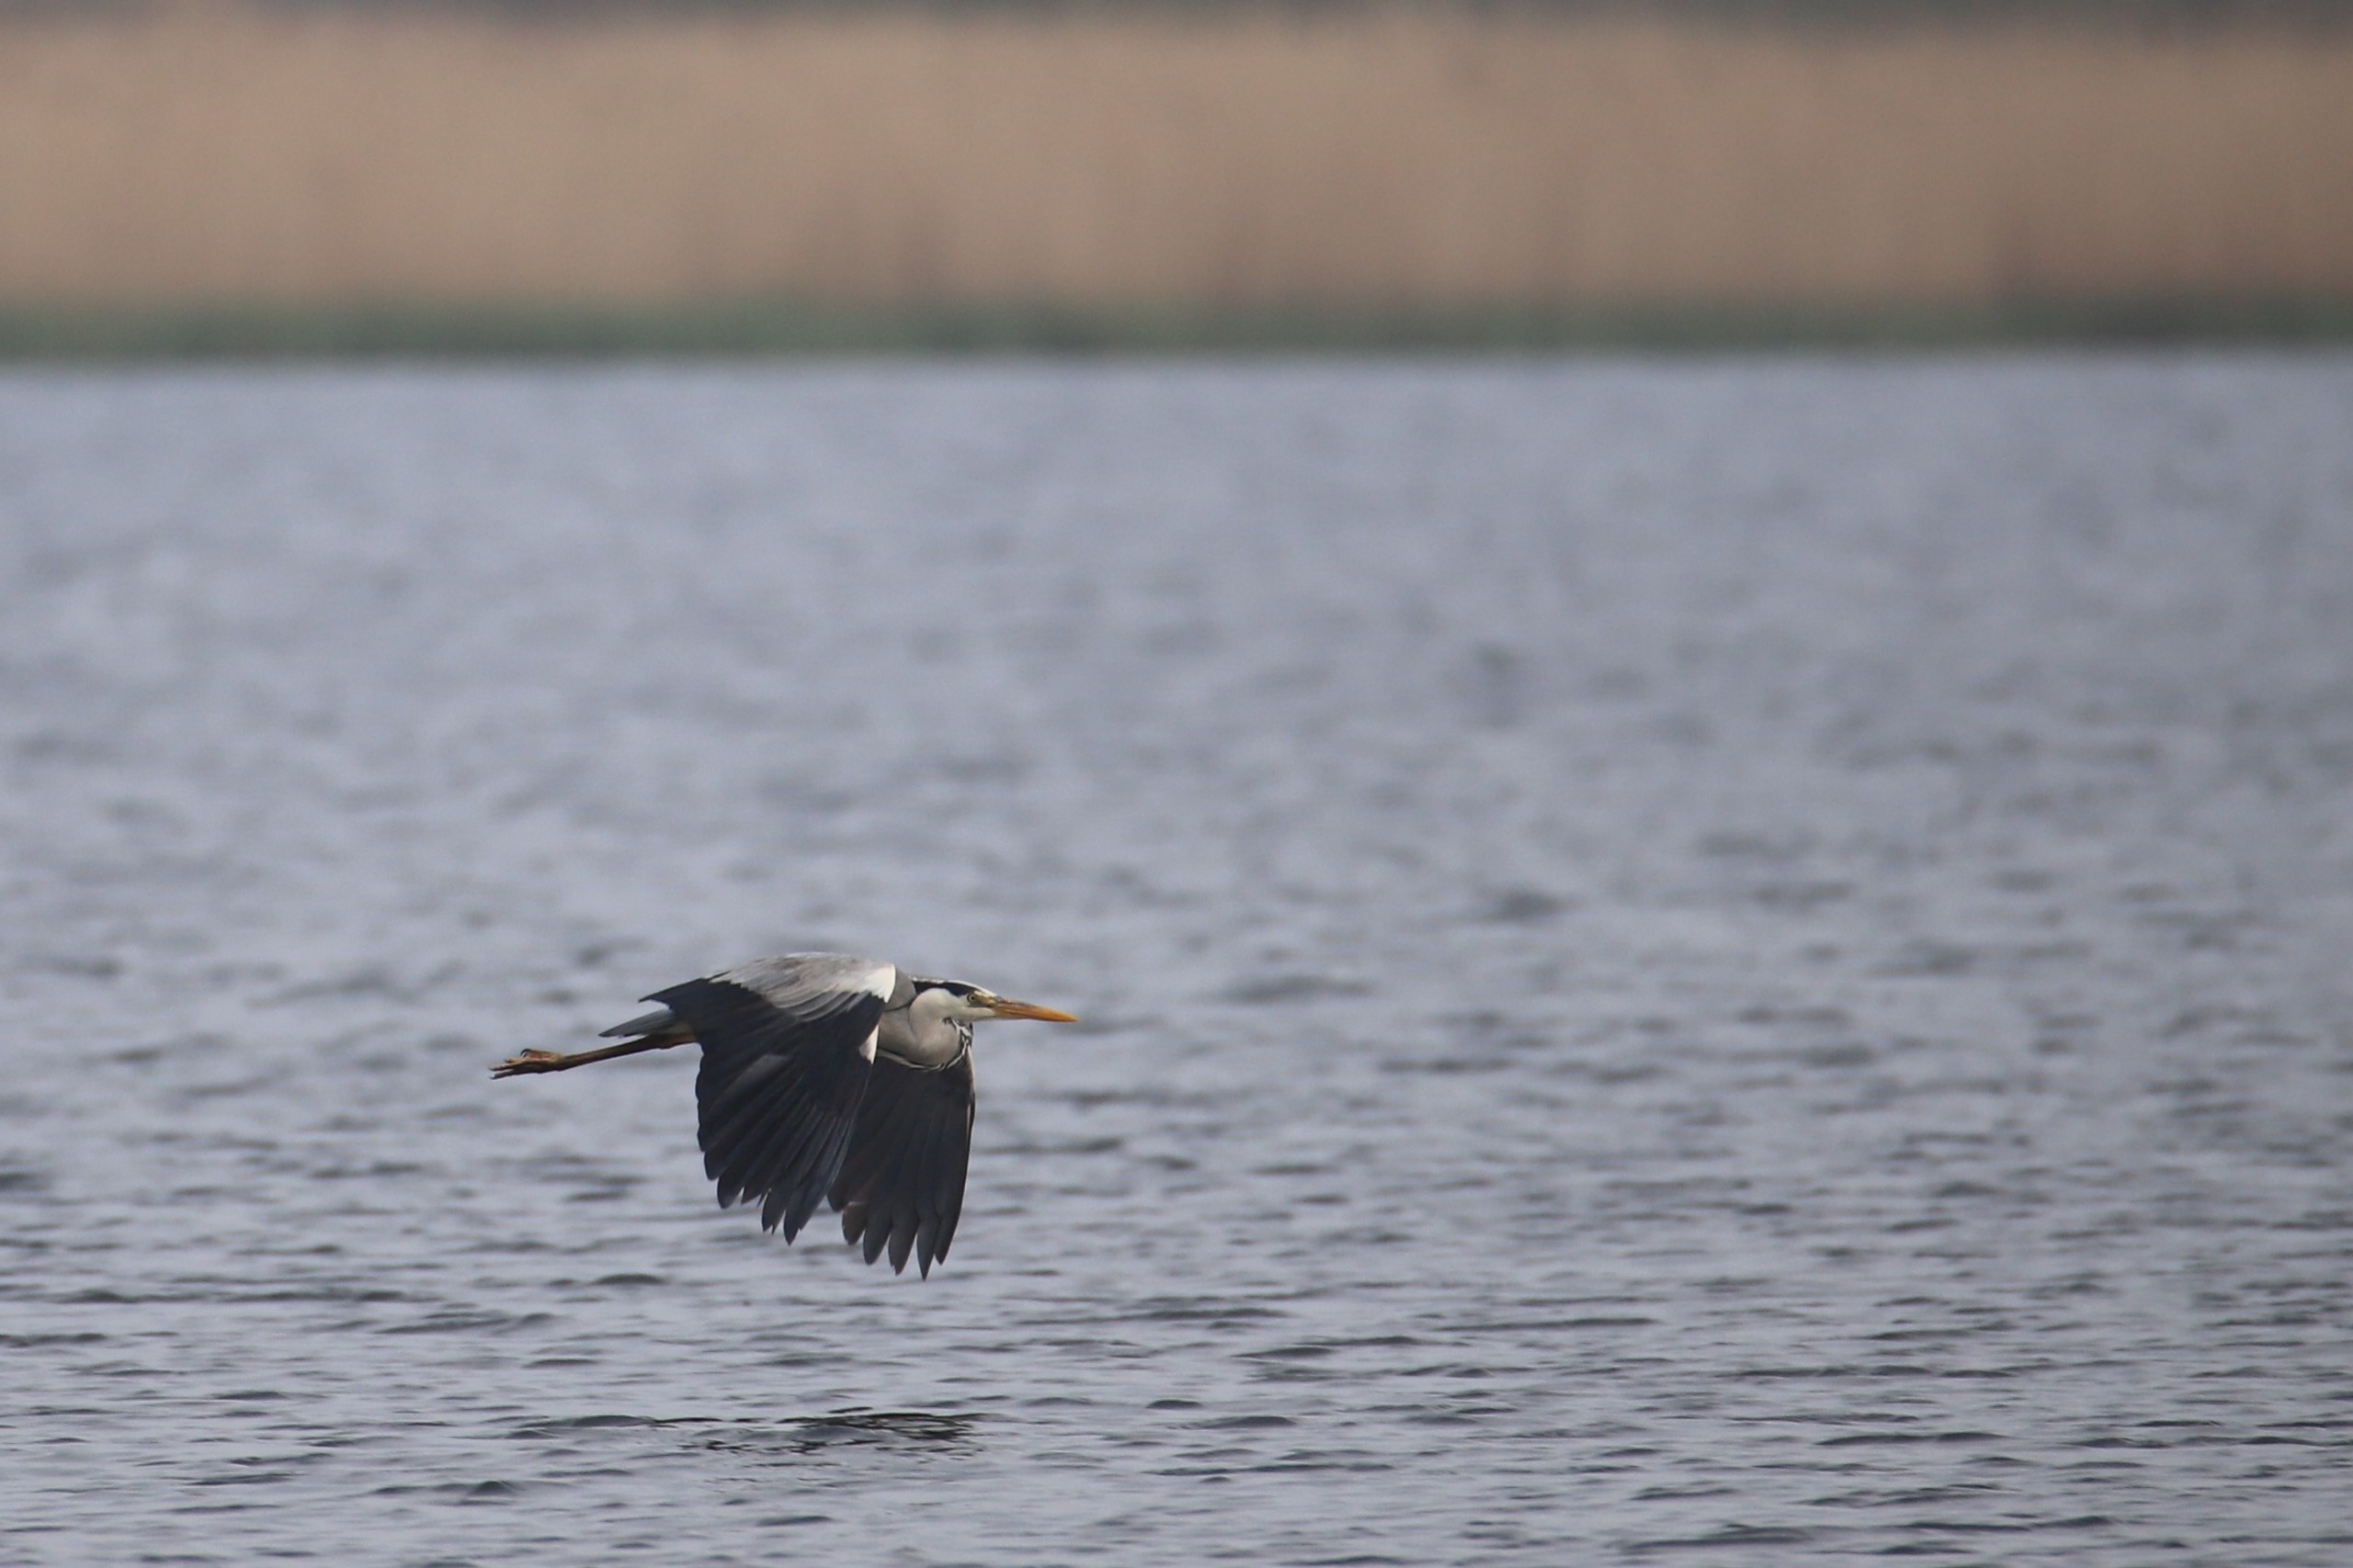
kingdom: Animalia
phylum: Chordata
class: Aves
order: Pelecaniformes
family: Ardeidae
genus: Ardea
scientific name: Ardea cinerea
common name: Fiskehejre
